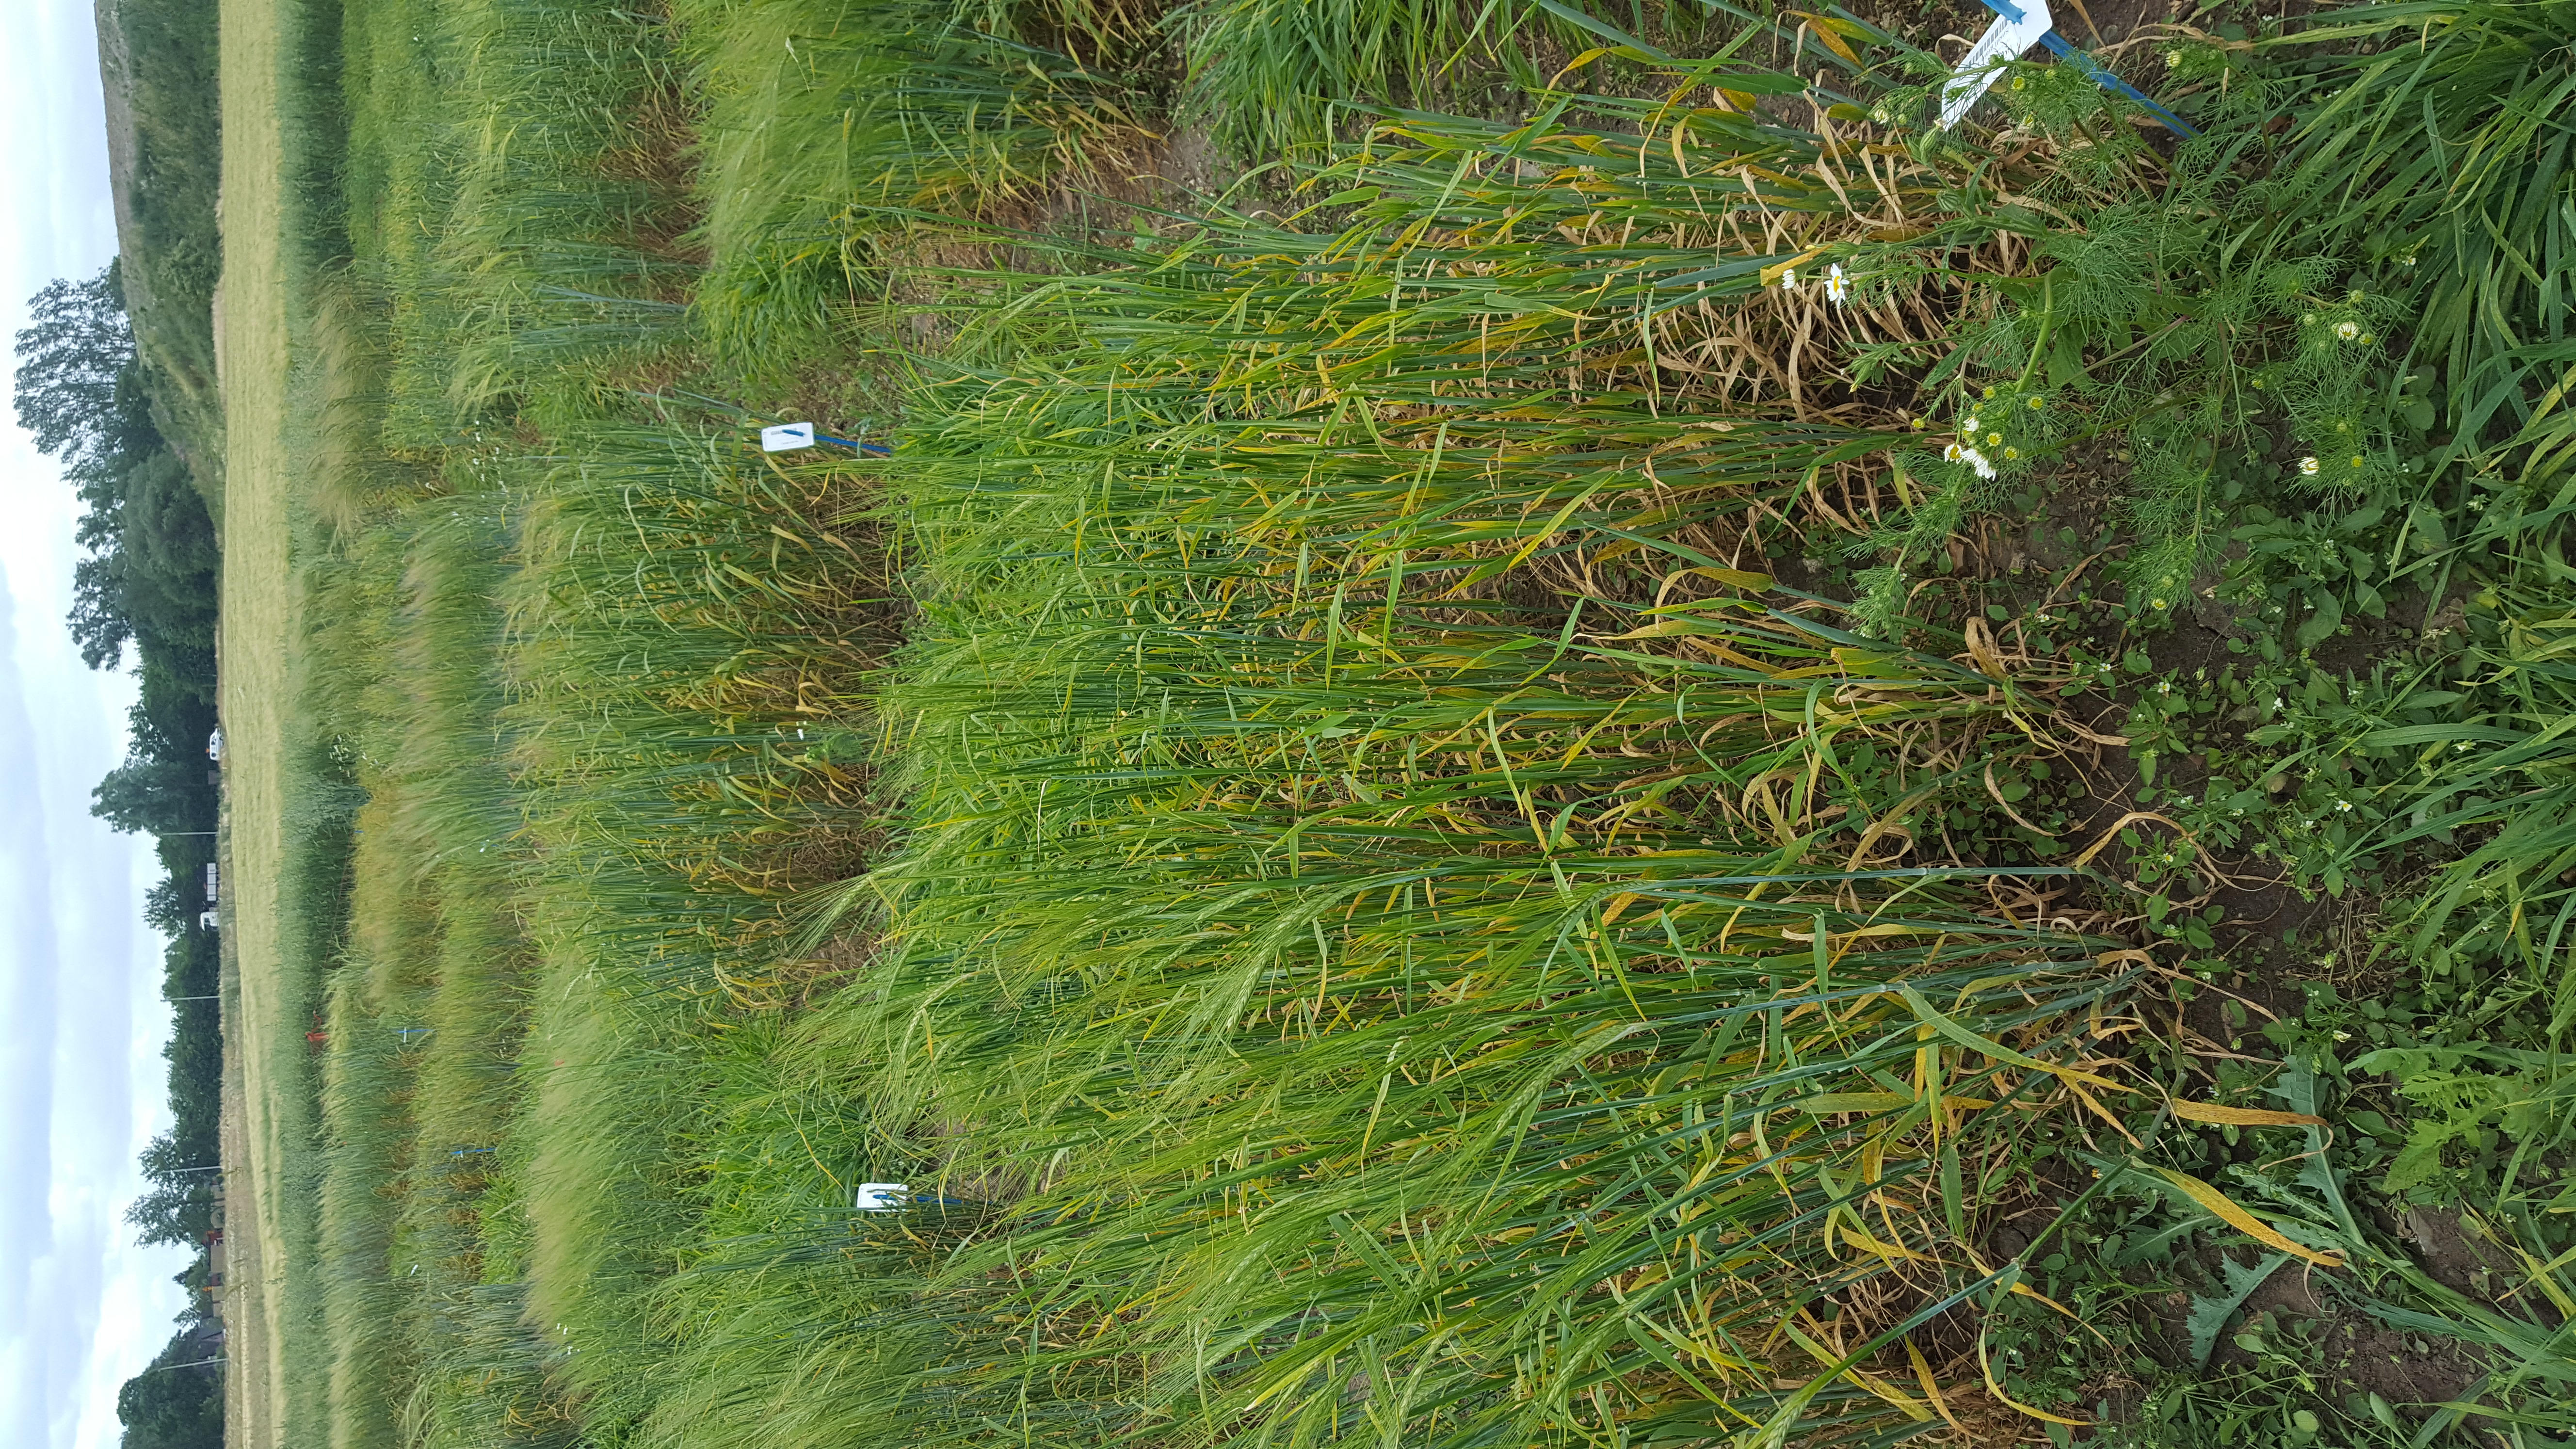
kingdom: Plantae
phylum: Tracheophyta
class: Liliopsida
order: Poales
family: Poaceae
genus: Hordeum
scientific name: Hordeum vulgare
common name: Common barley
